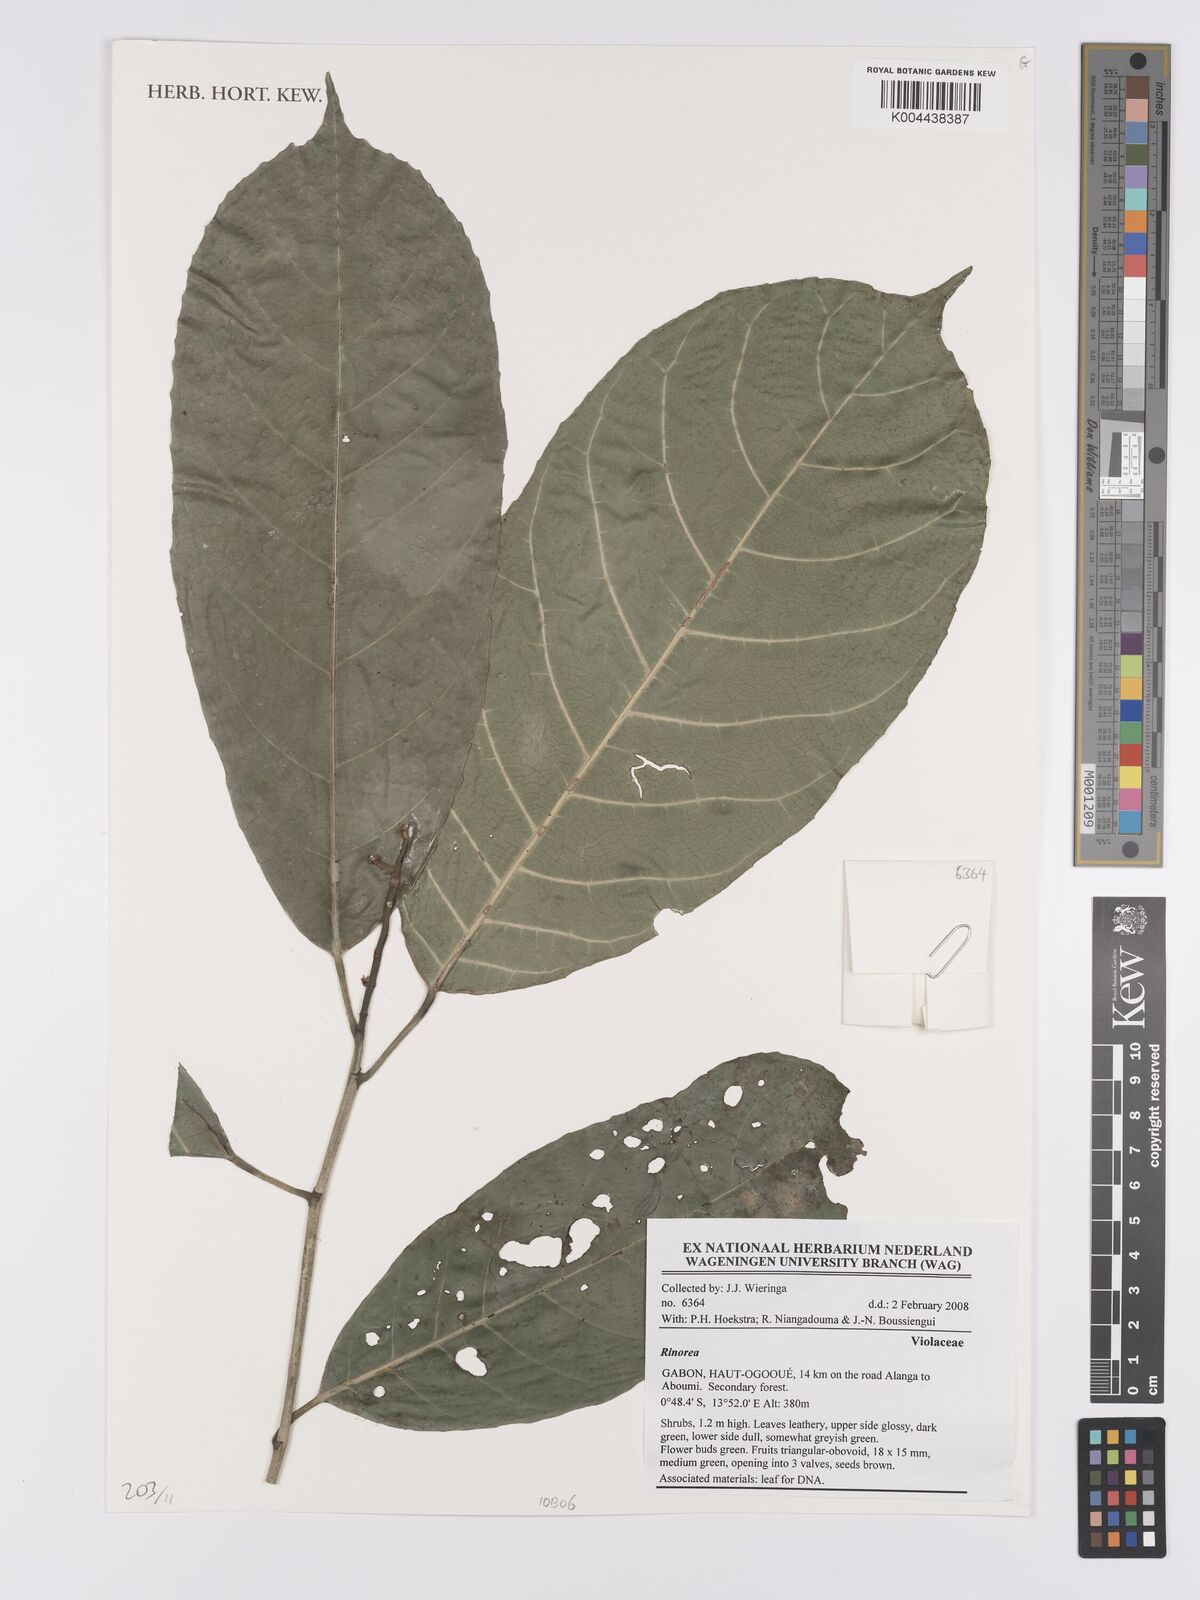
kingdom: Plantae
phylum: Tracheophyta
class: Magnoliopsida
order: Malpighiales
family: Violaceae
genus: Rinorea
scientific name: Rinorea
